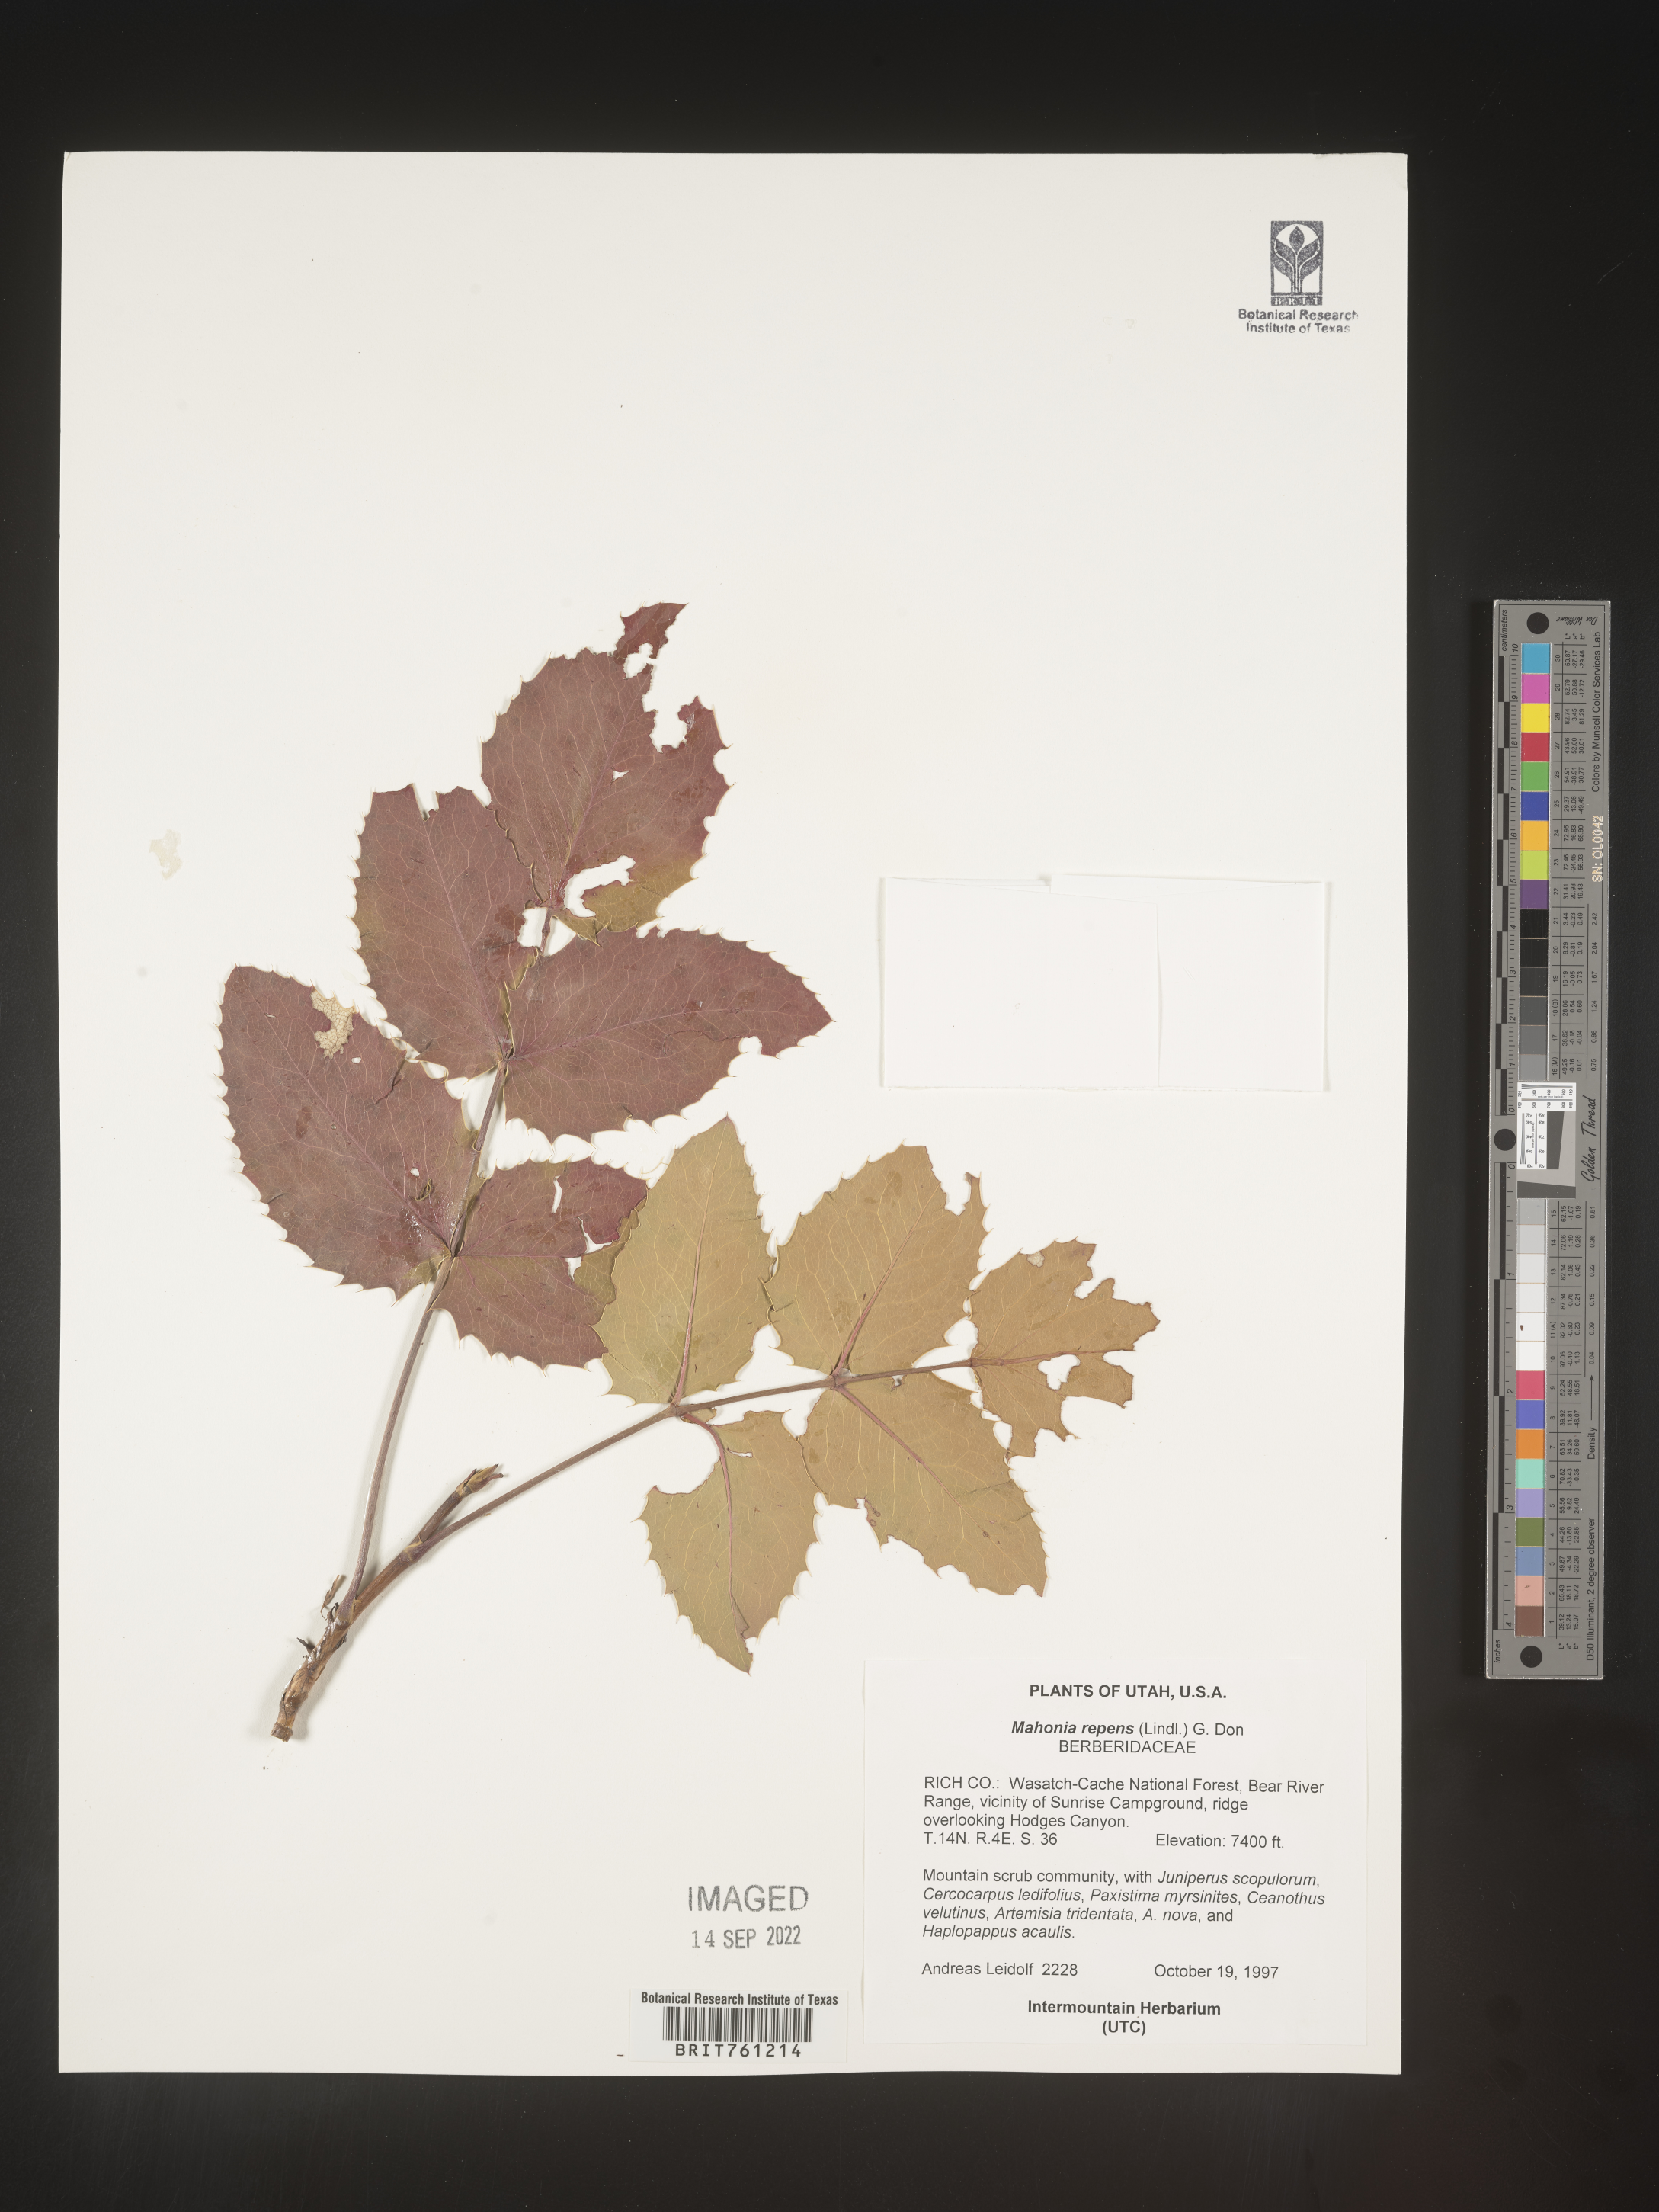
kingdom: Plantae
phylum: Tracheophyta
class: Magnoliopsida
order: Ranunculales
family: Berberidaceae
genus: Mahonia
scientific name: Mahonia repens
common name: Creeping oregon-grape
